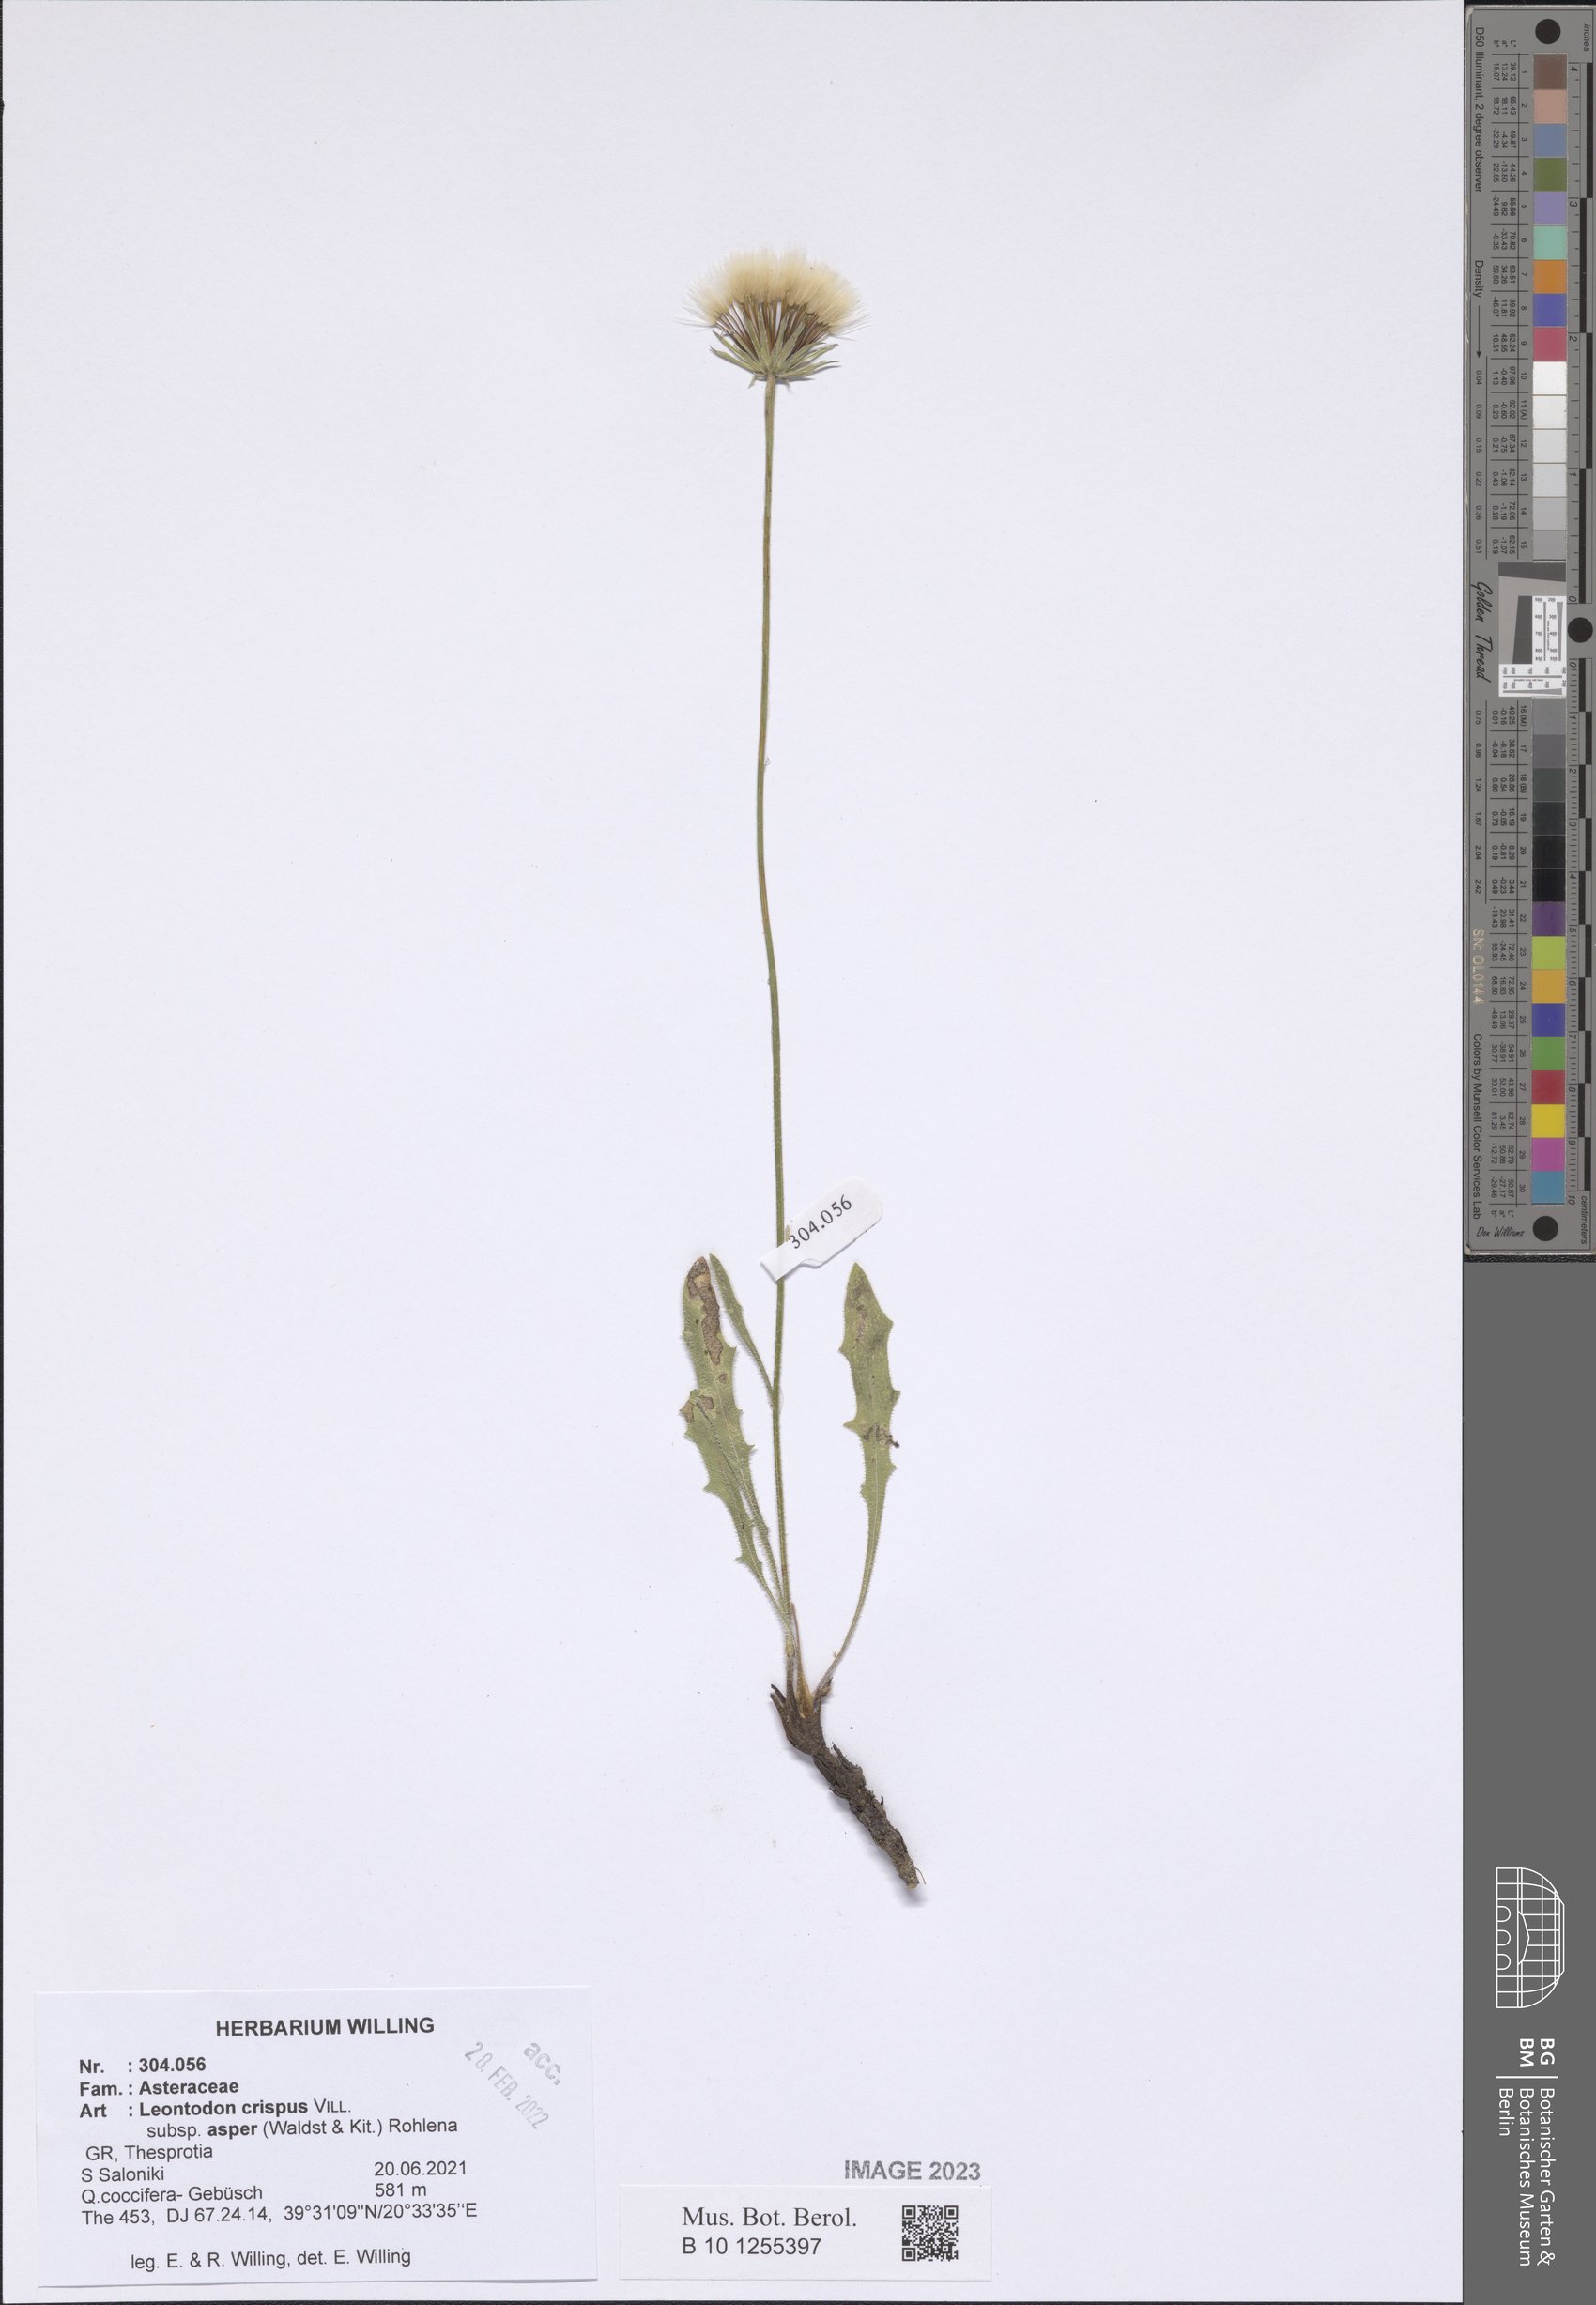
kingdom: Plantae
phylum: Tracheophyta
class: Magnoliopsida
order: Asterales
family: Asteraceae
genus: Leontodon
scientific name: Leontodon biscutellifolius
